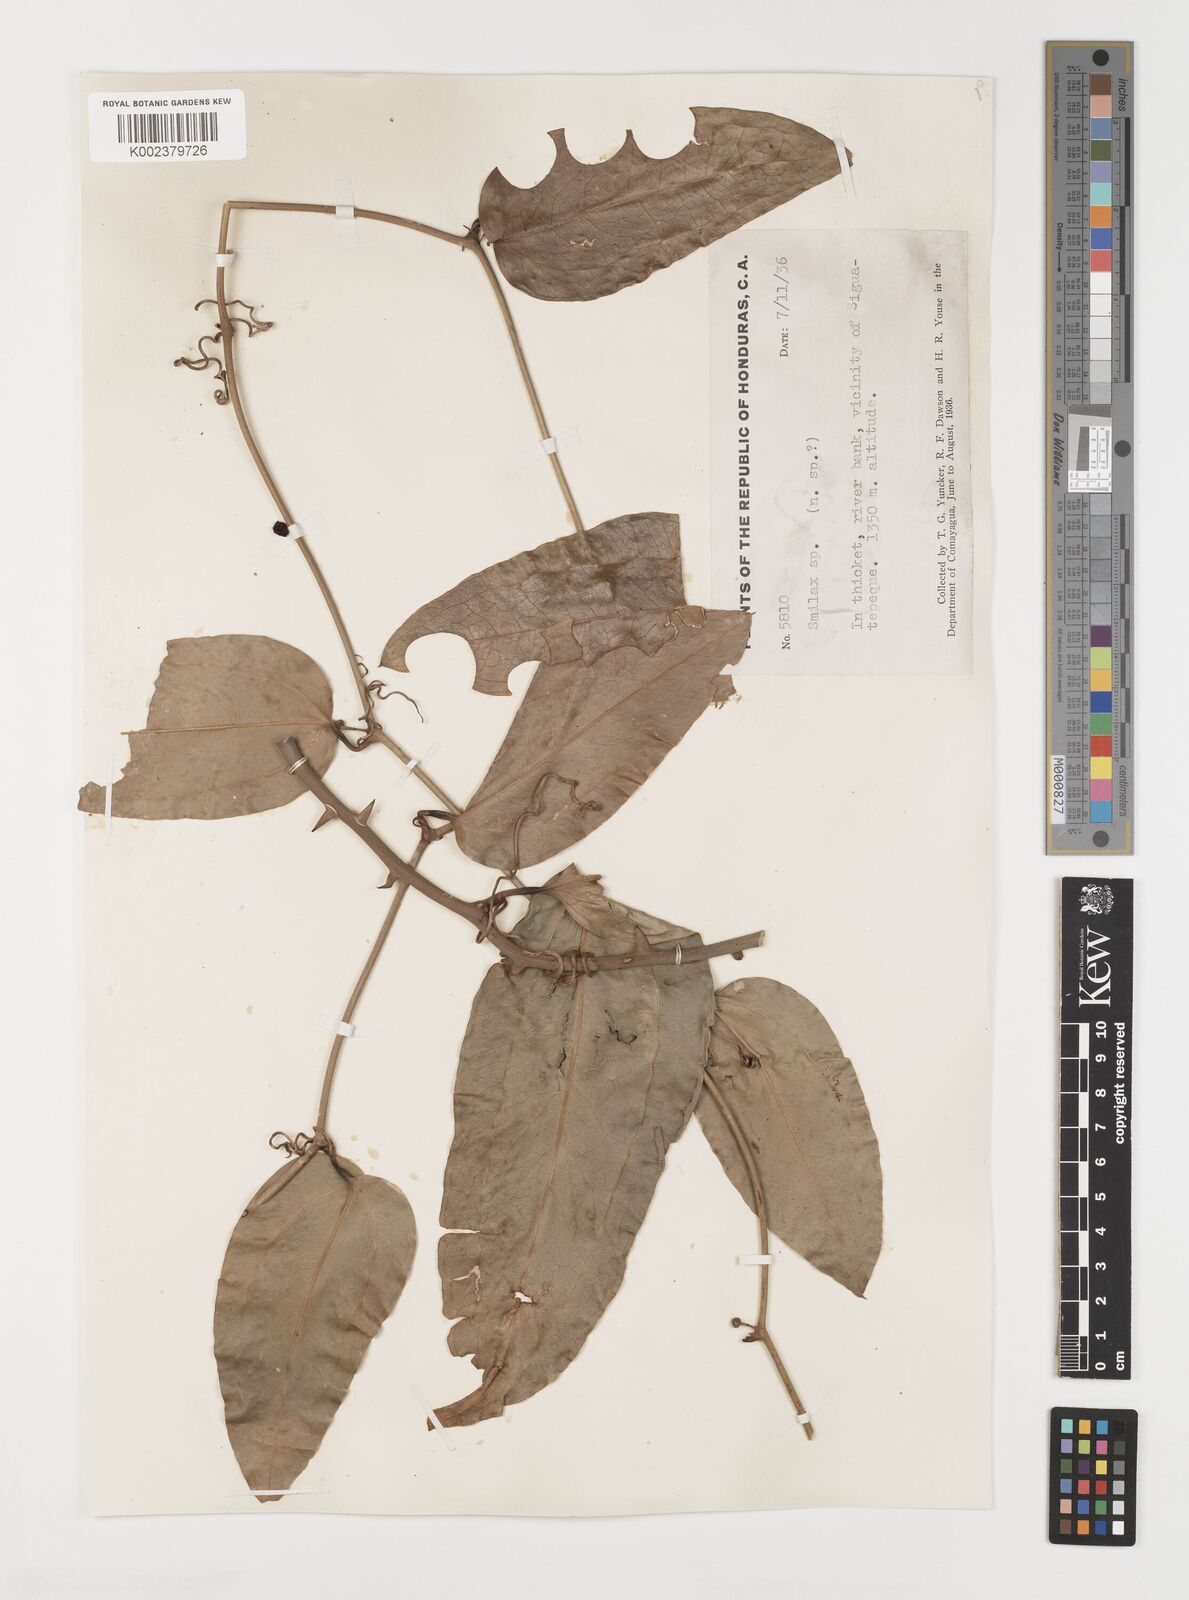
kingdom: Plantae
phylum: Tracheophyta
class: Liliopsida
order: Liliales
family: Smilacaceae
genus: Smilax
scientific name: Smilax
